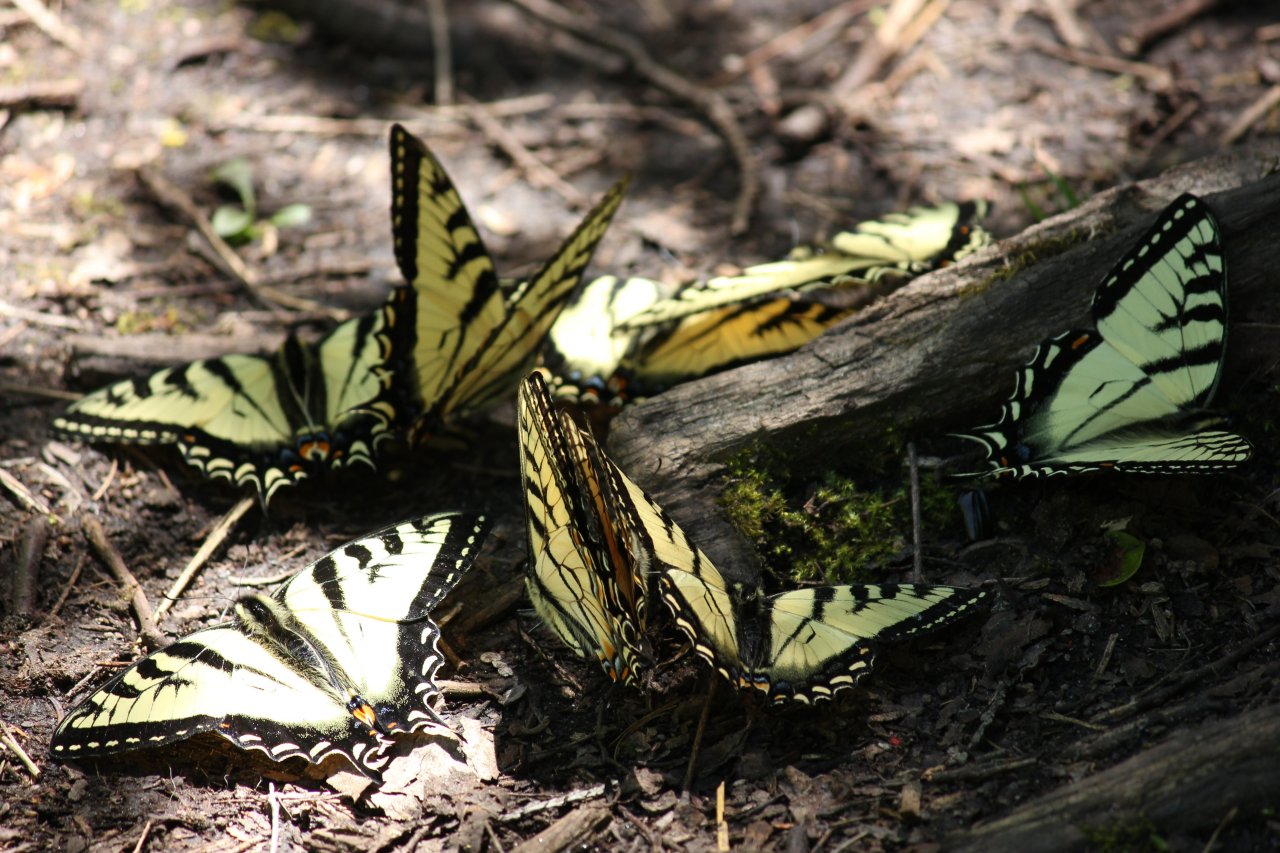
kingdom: Animalia
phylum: Arthropoda
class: Insecta
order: Lepidoptera
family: Papilionidae
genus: Pterourus
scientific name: Pterourus canadensis
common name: Canadian Tiger Swallowtail
